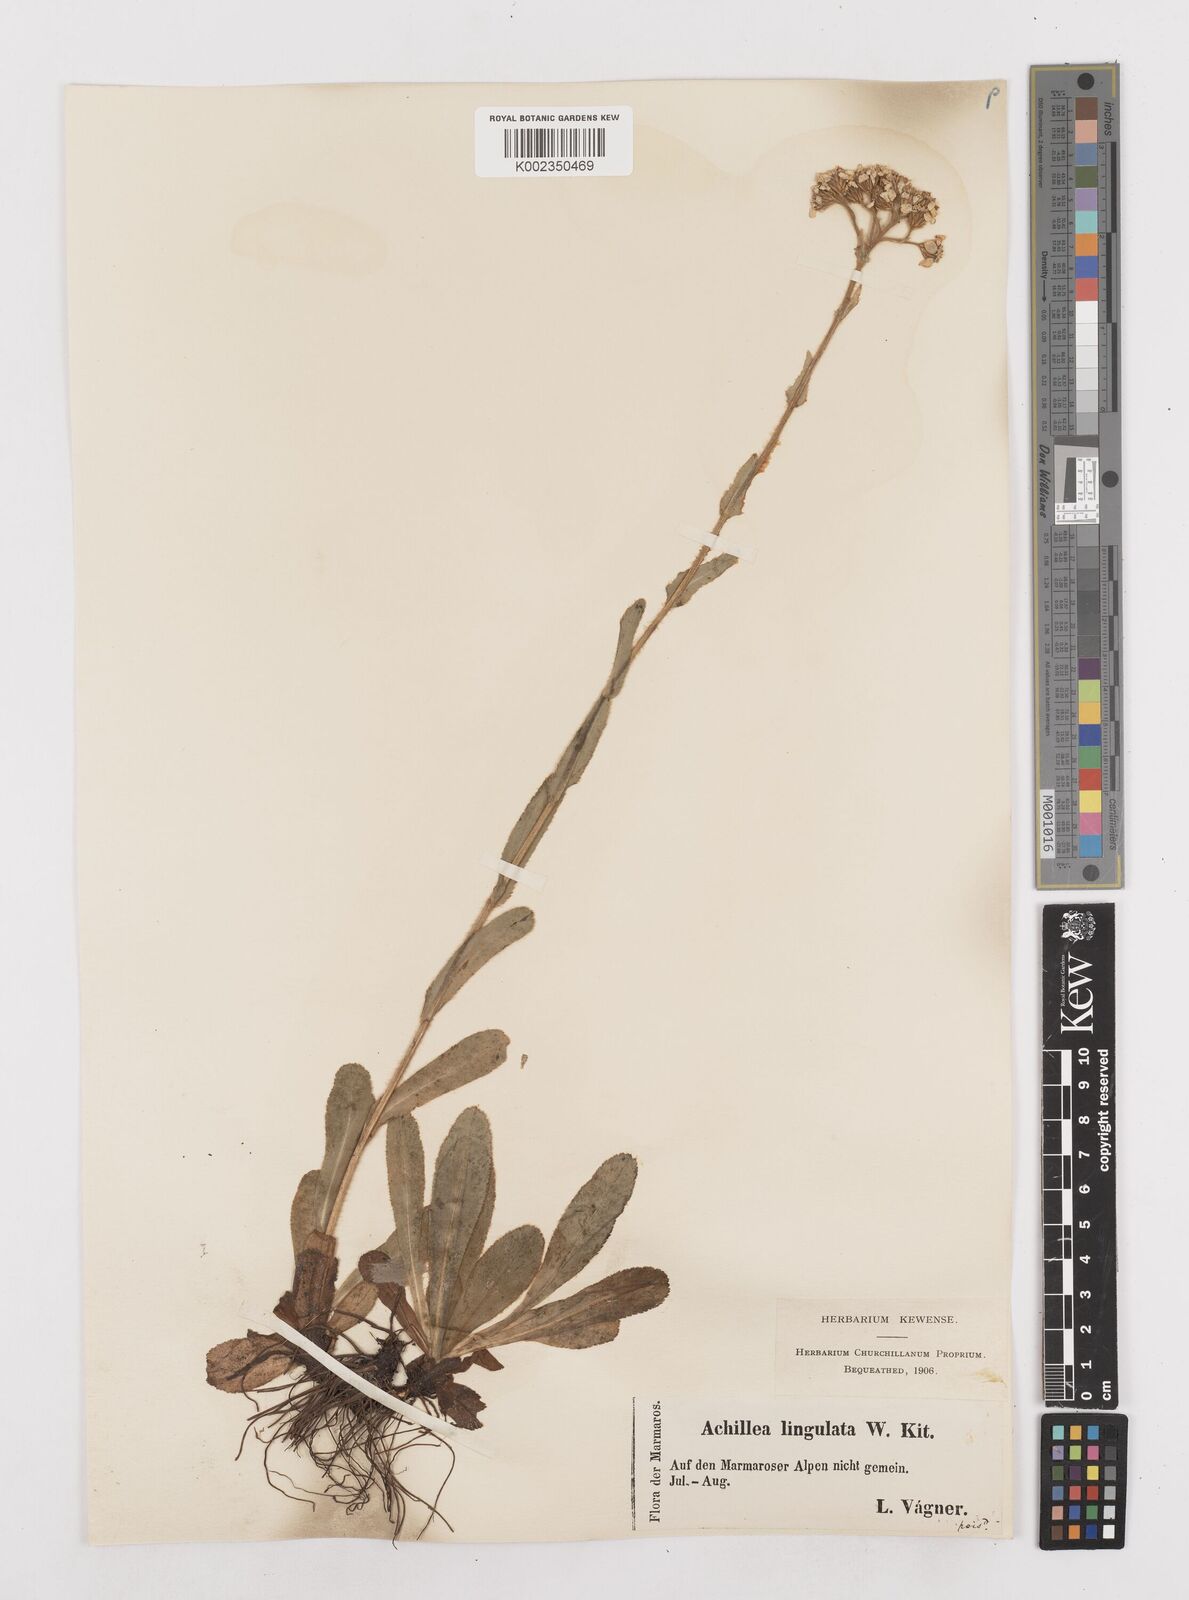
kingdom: Plantae
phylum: Tracheophyta
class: Magnoliopsida
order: Asterales
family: Asteraceae
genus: Achillea
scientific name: Achillea lingulata
